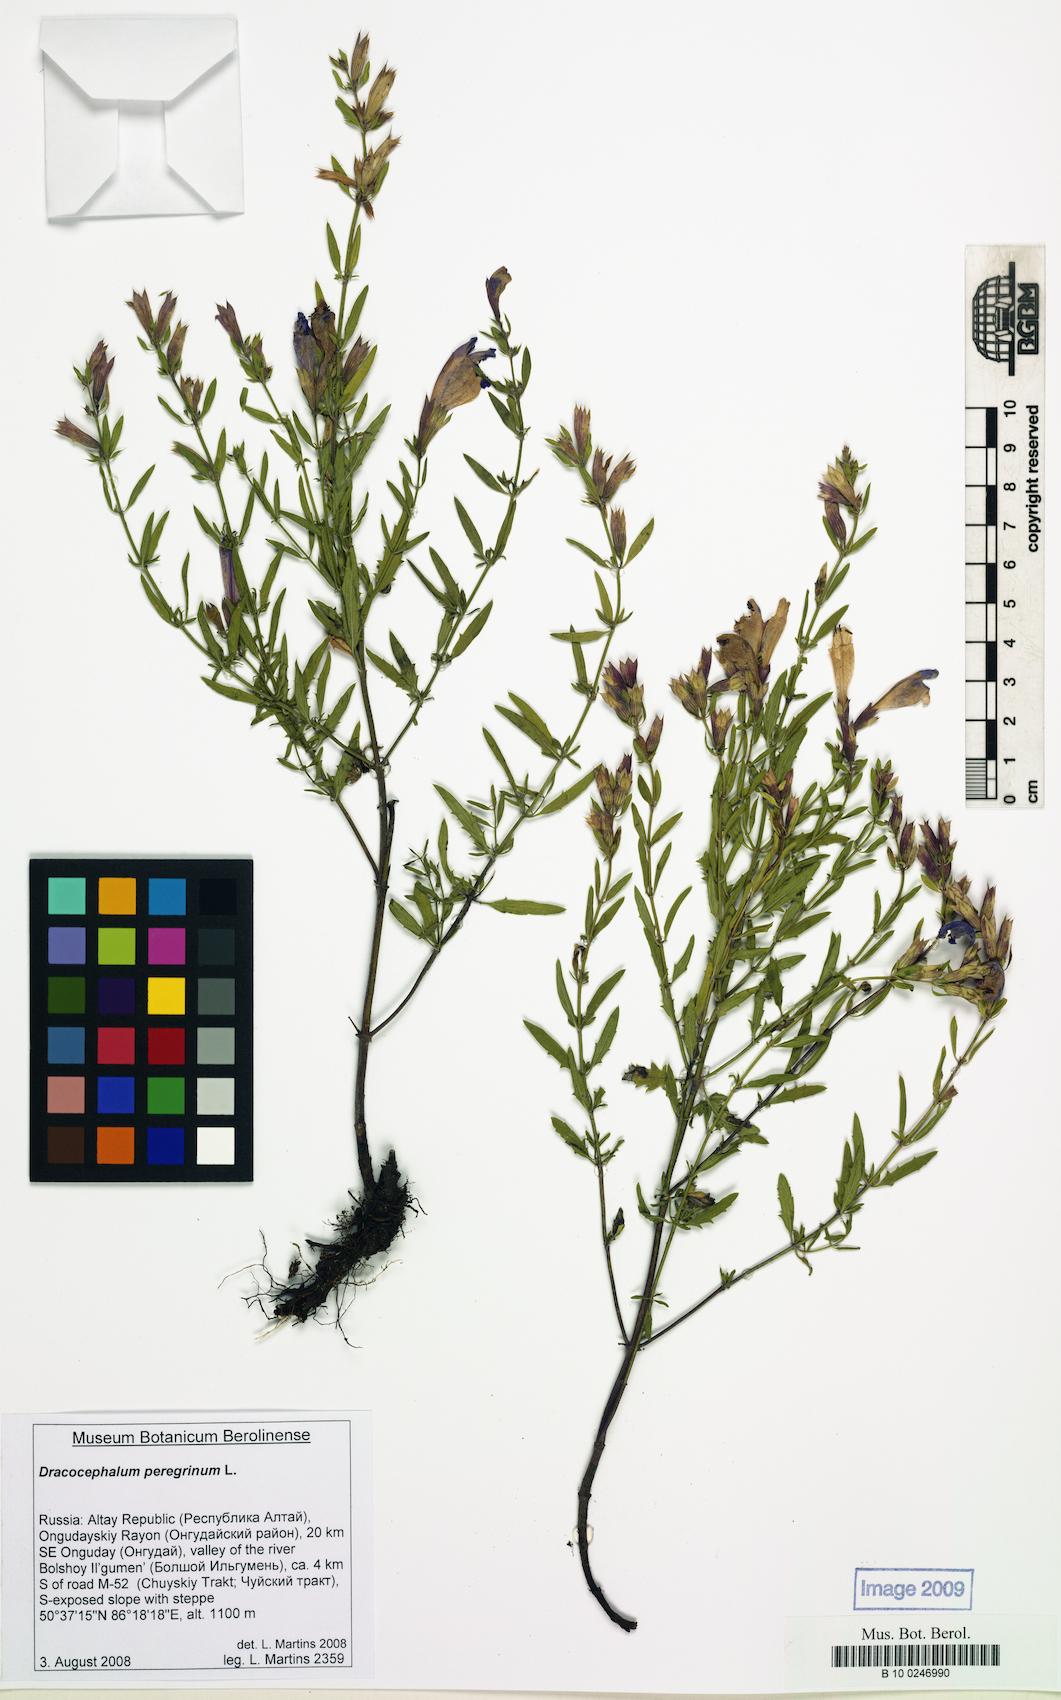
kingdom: Plantae
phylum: Tracheophyta
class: Magnoliopsida
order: Lamiales
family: Lamiaceae
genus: Dracocephalum
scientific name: Dracocephalum peregrinum
